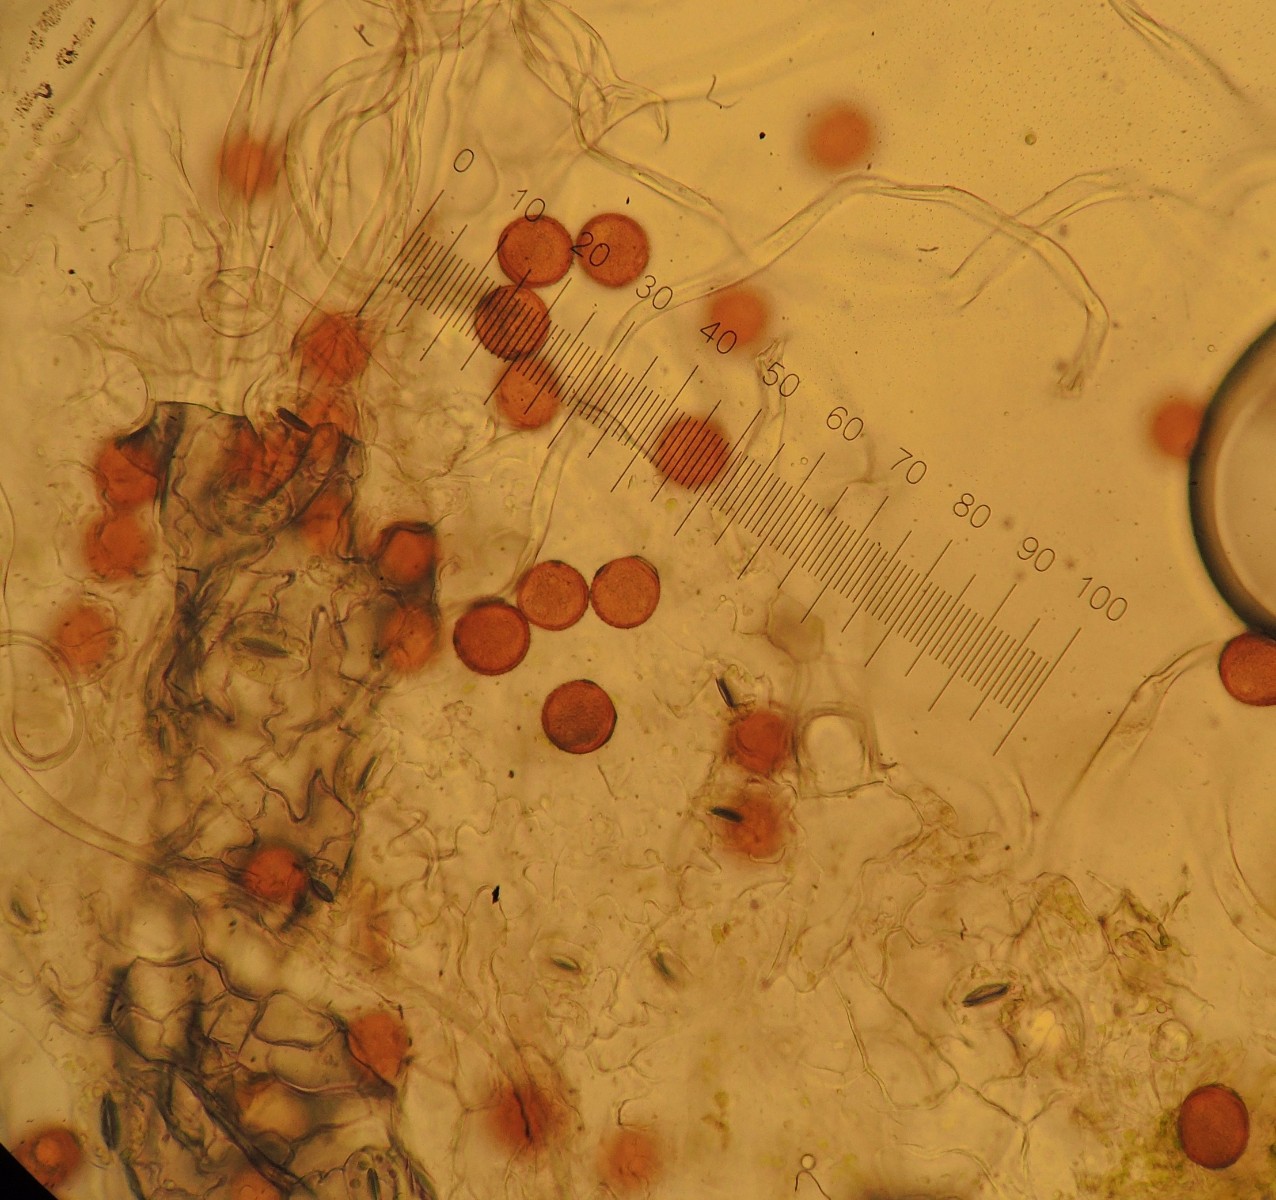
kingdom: Fungi
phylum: Basidiomycota
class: Pucciniomycetes
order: Pucciniales
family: Pucciniaceae
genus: Puccinia
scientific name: Puccinia calcitrapae
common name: Rust fungus
